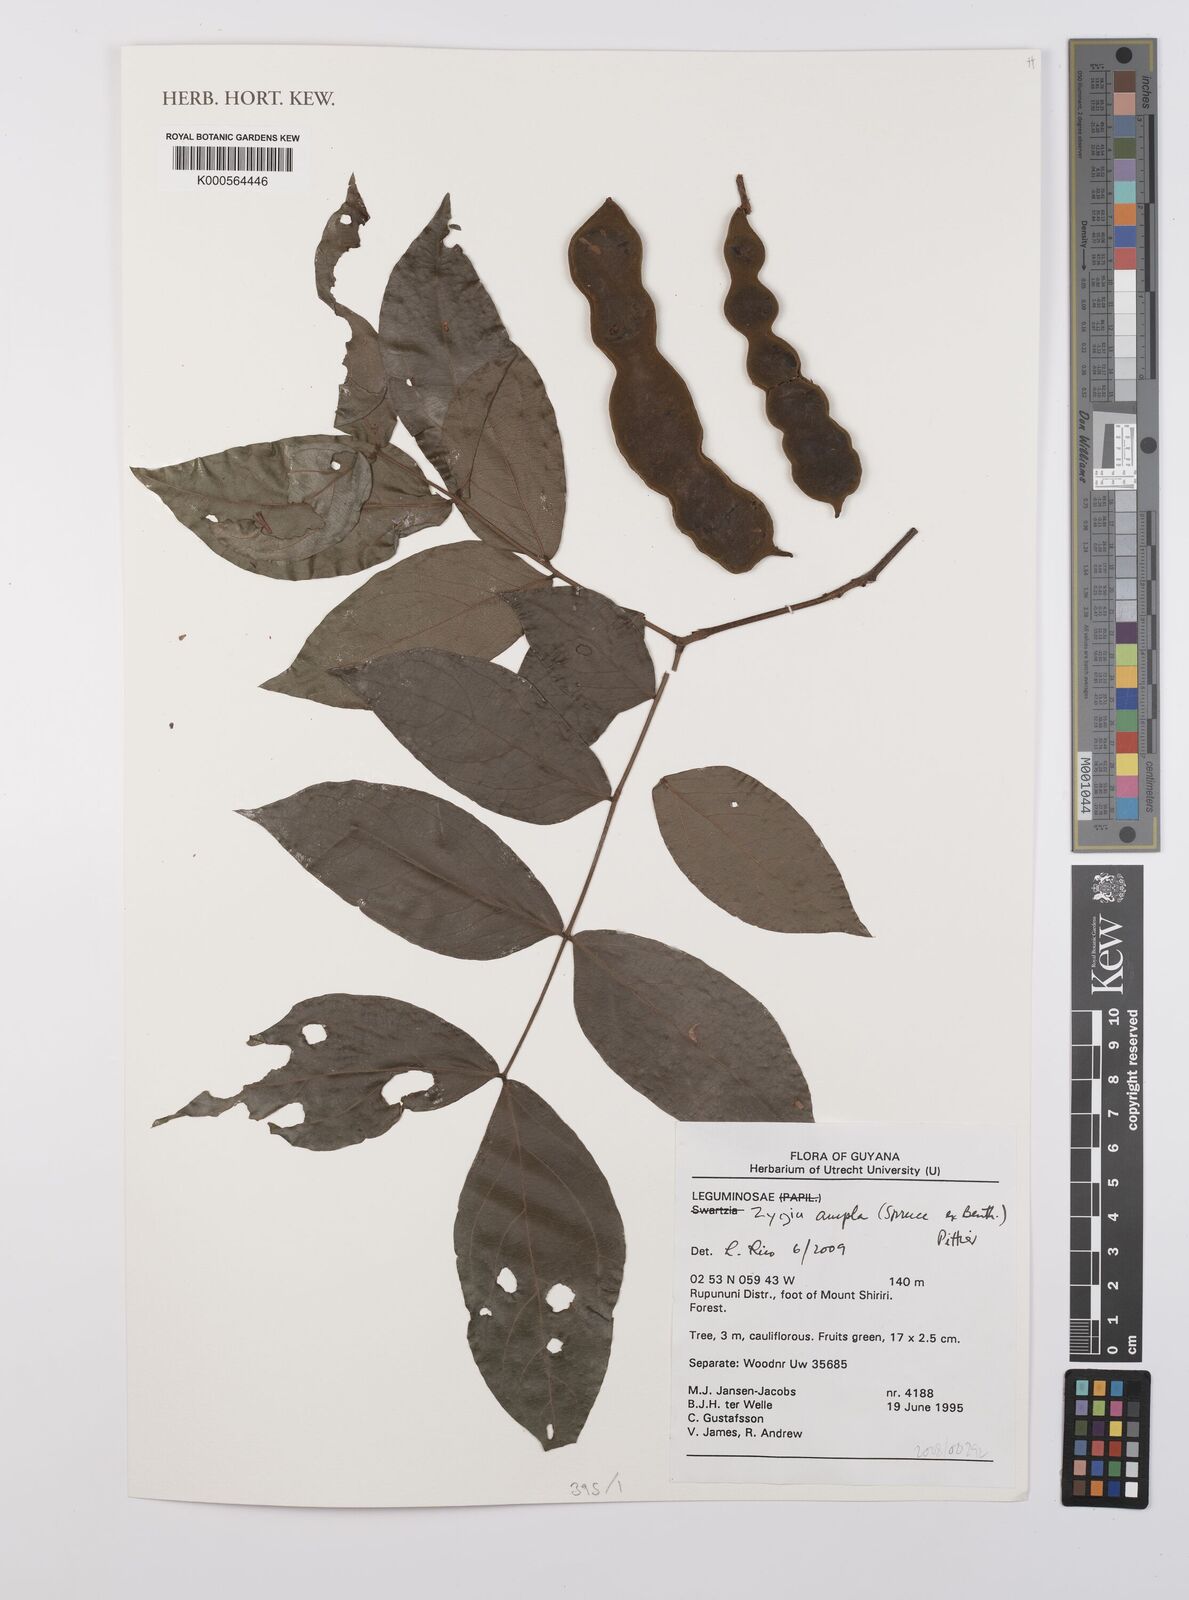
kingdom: Plantae
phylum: Tracheophyta
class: Magnoliopsida
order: Fabales
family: Fabaceae
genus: Zygia
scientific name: Zygia ampla
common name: Jarendeua de sapo
